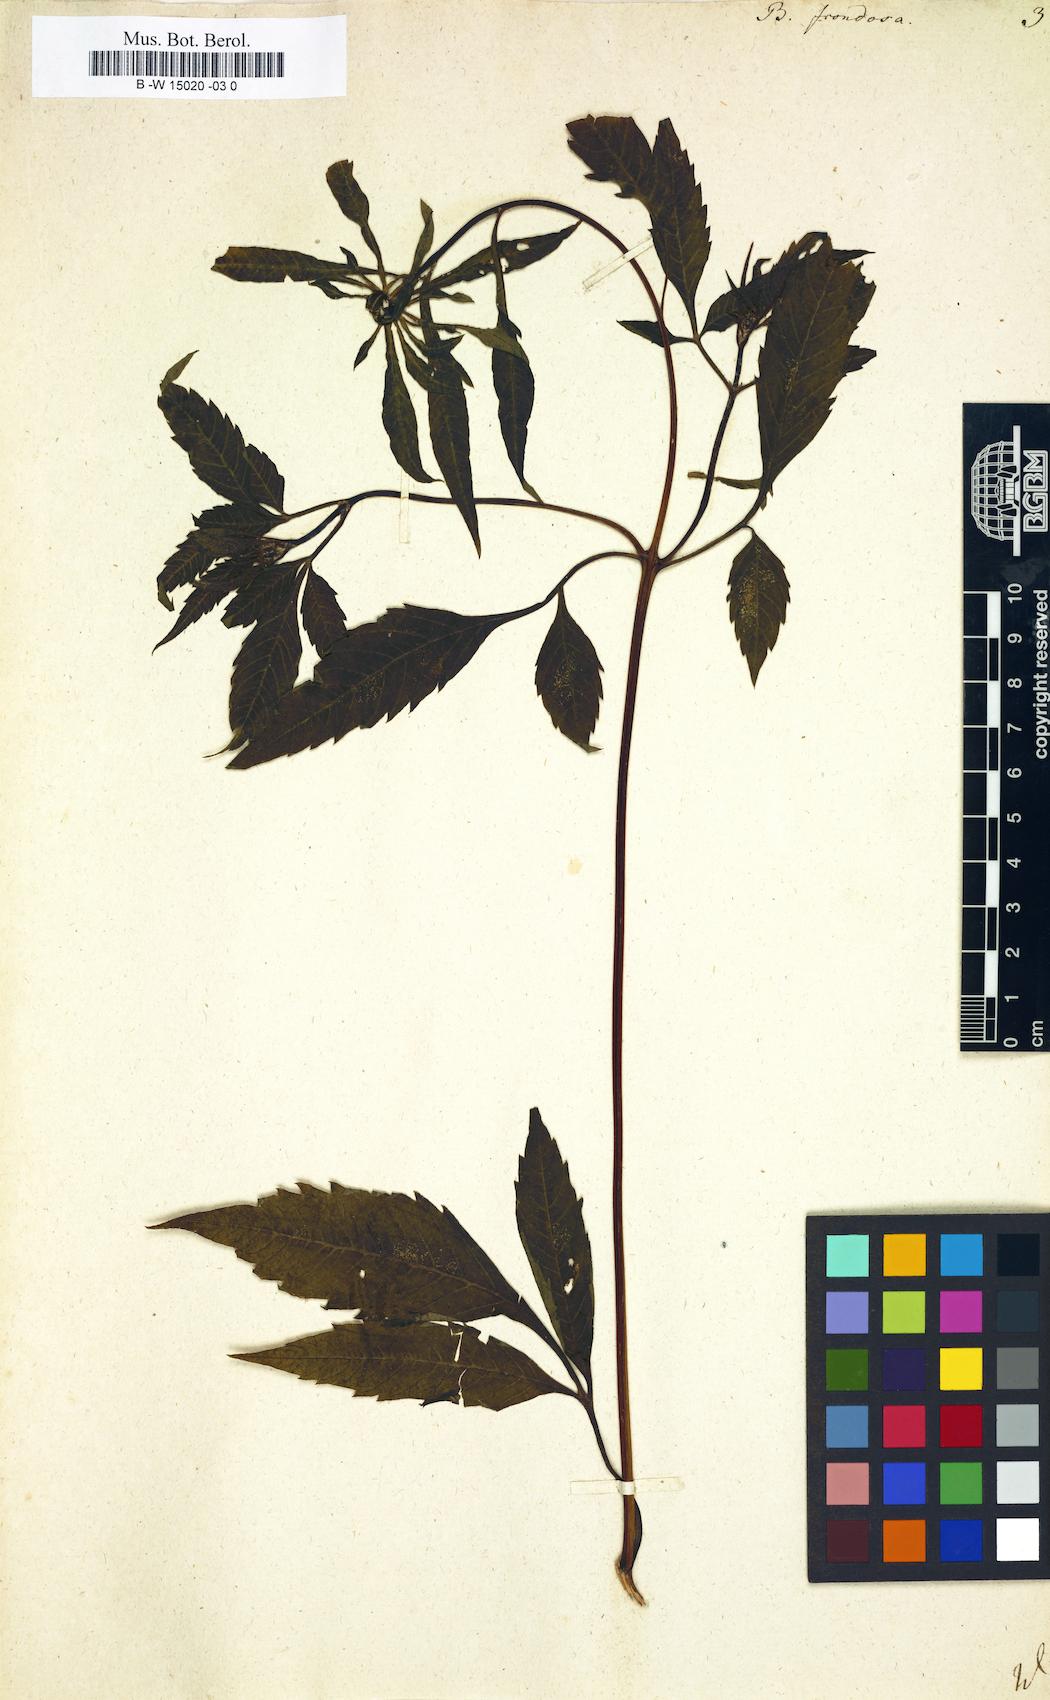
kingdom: Plantae
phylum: Tracheophyta
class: Magnoliopsida
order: Asterales
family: Asteraceae
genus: Bidens
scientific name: Bidens frondosa
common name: Beggarticks
